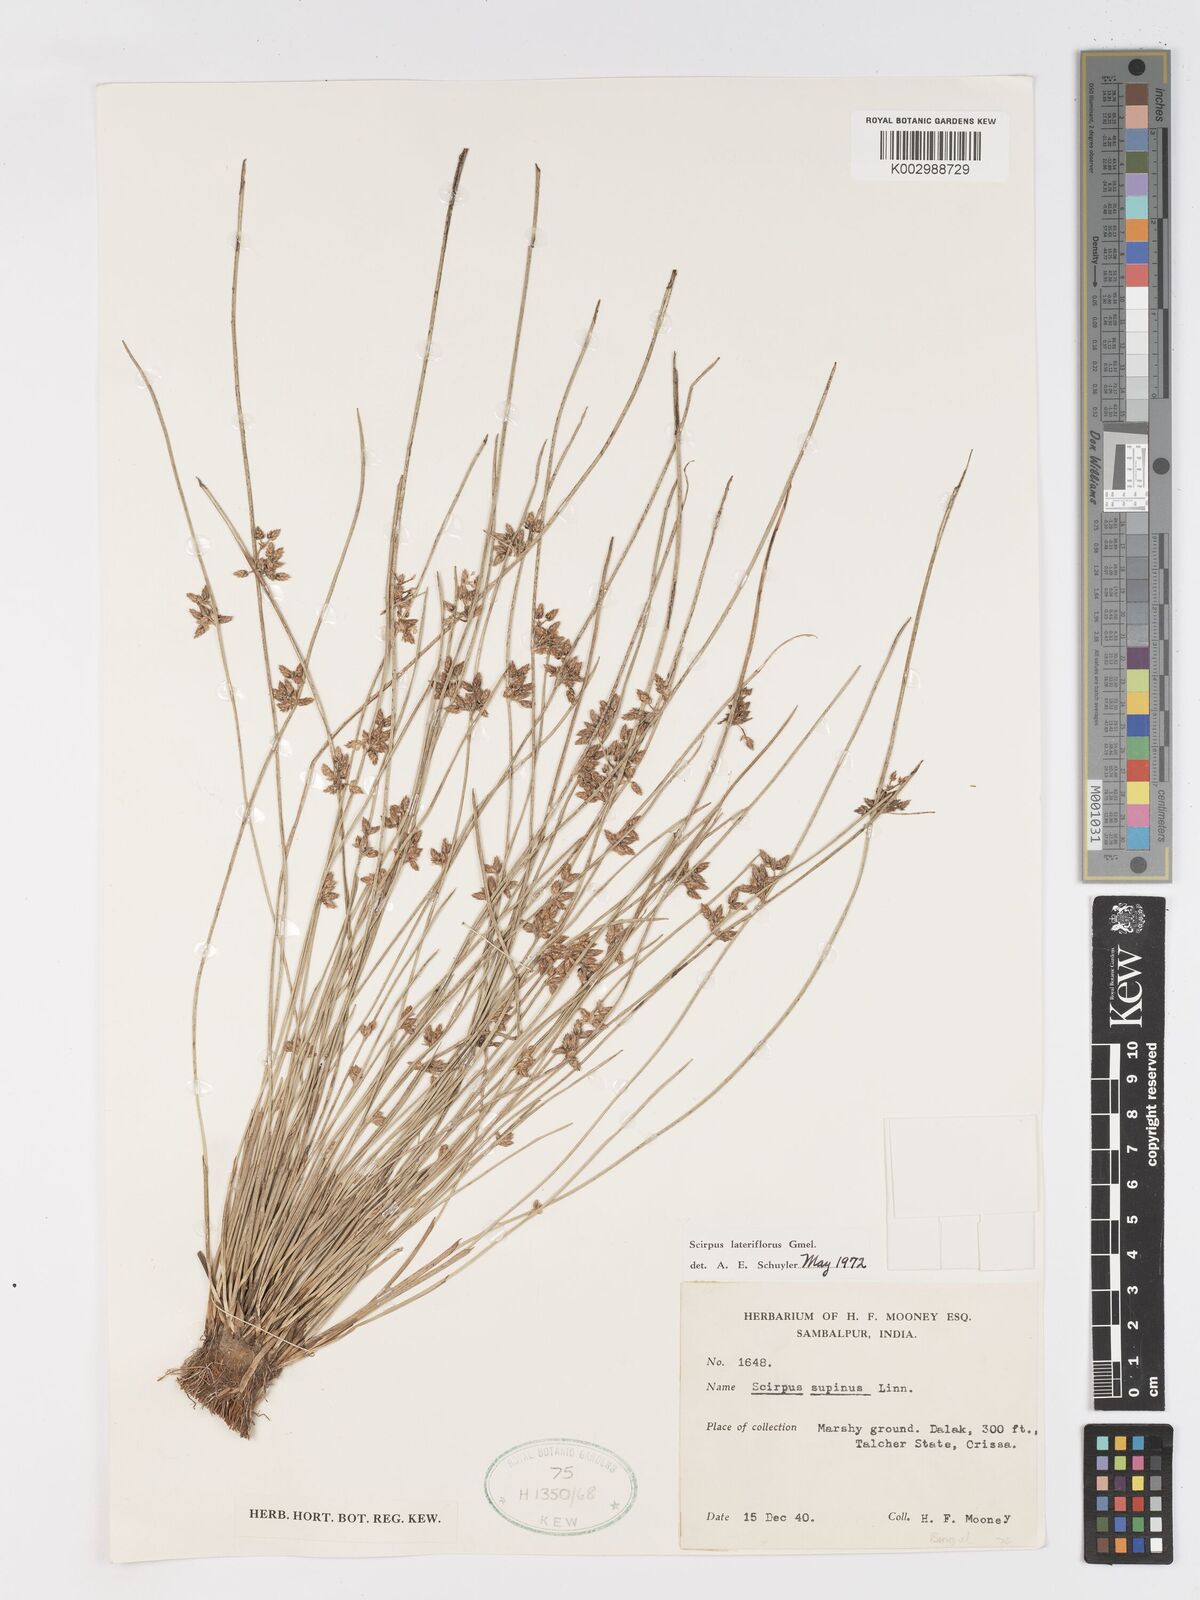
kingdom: Plantae
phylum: Tracheophyta
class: Liliopsida
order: Poales
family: Cyperaceae
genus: Schoenoplectiella
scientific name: Schoenoplectiella lateriflora
